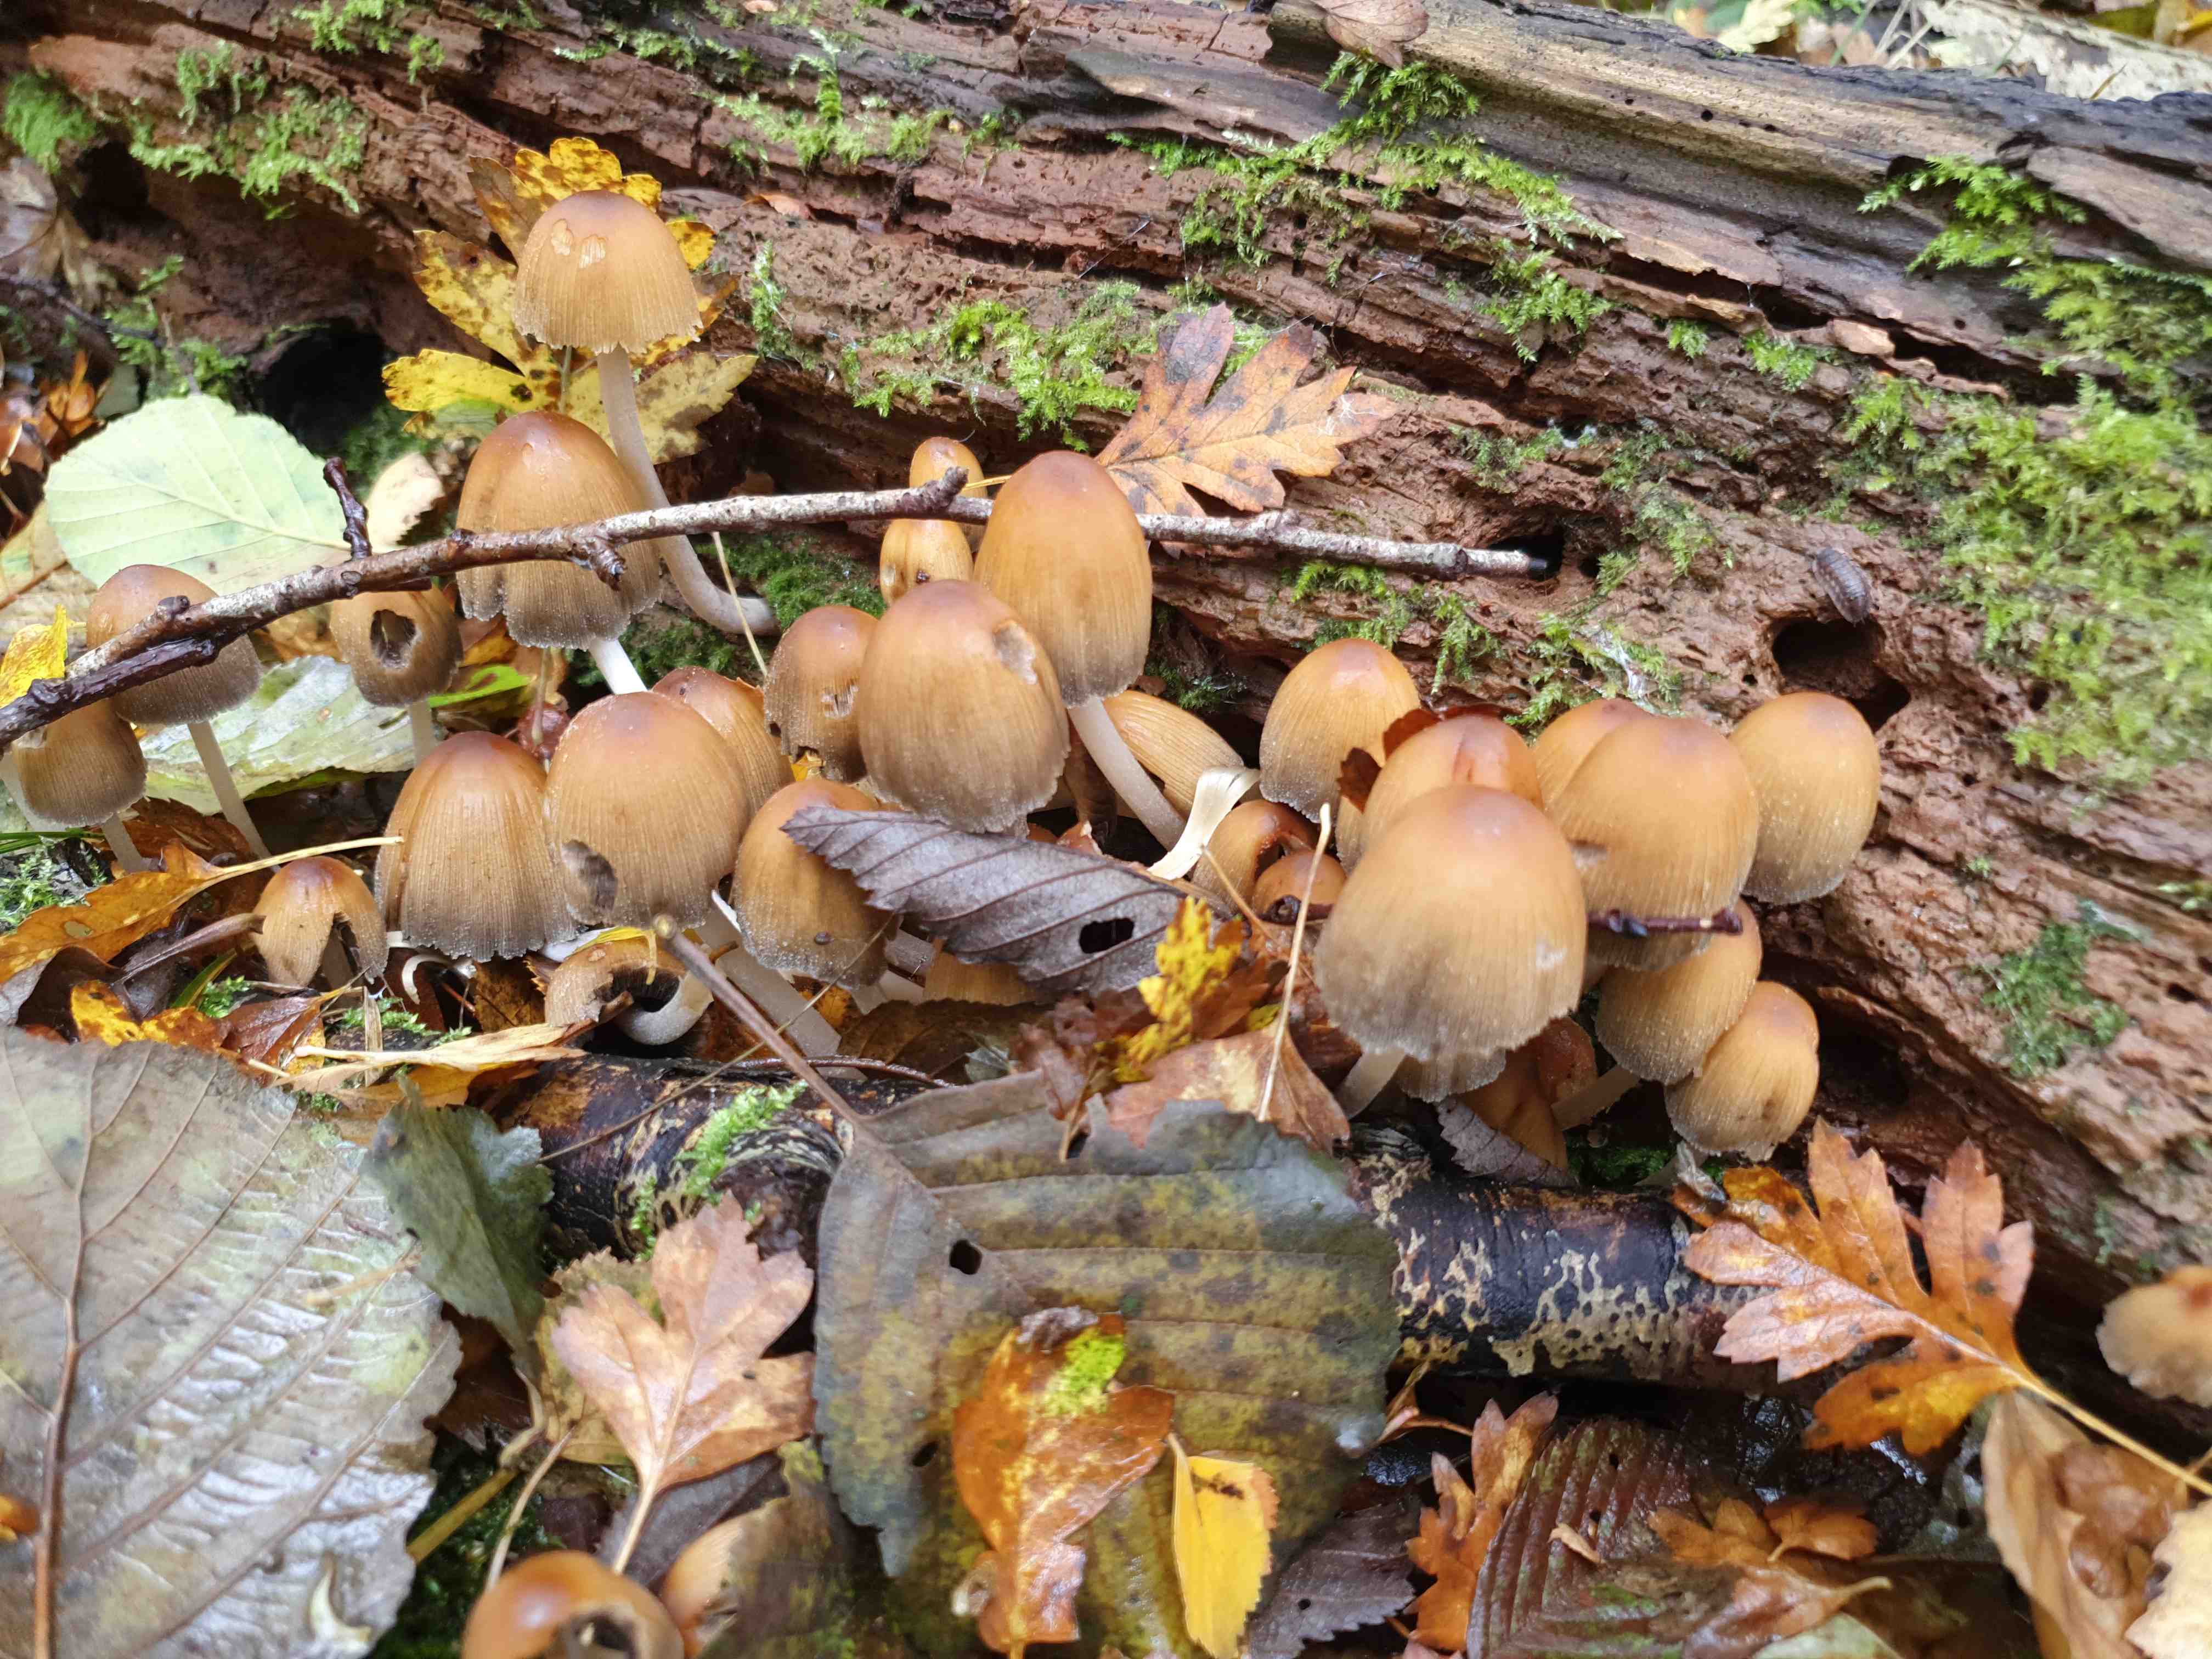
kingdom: Fungi
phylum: Basidiomycota
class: Agaricomycetes
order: Agaricales
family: Psathyrellaceae
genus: Coprinellus
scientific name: Coprinellus micaceus
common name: glimmer-blækhat
